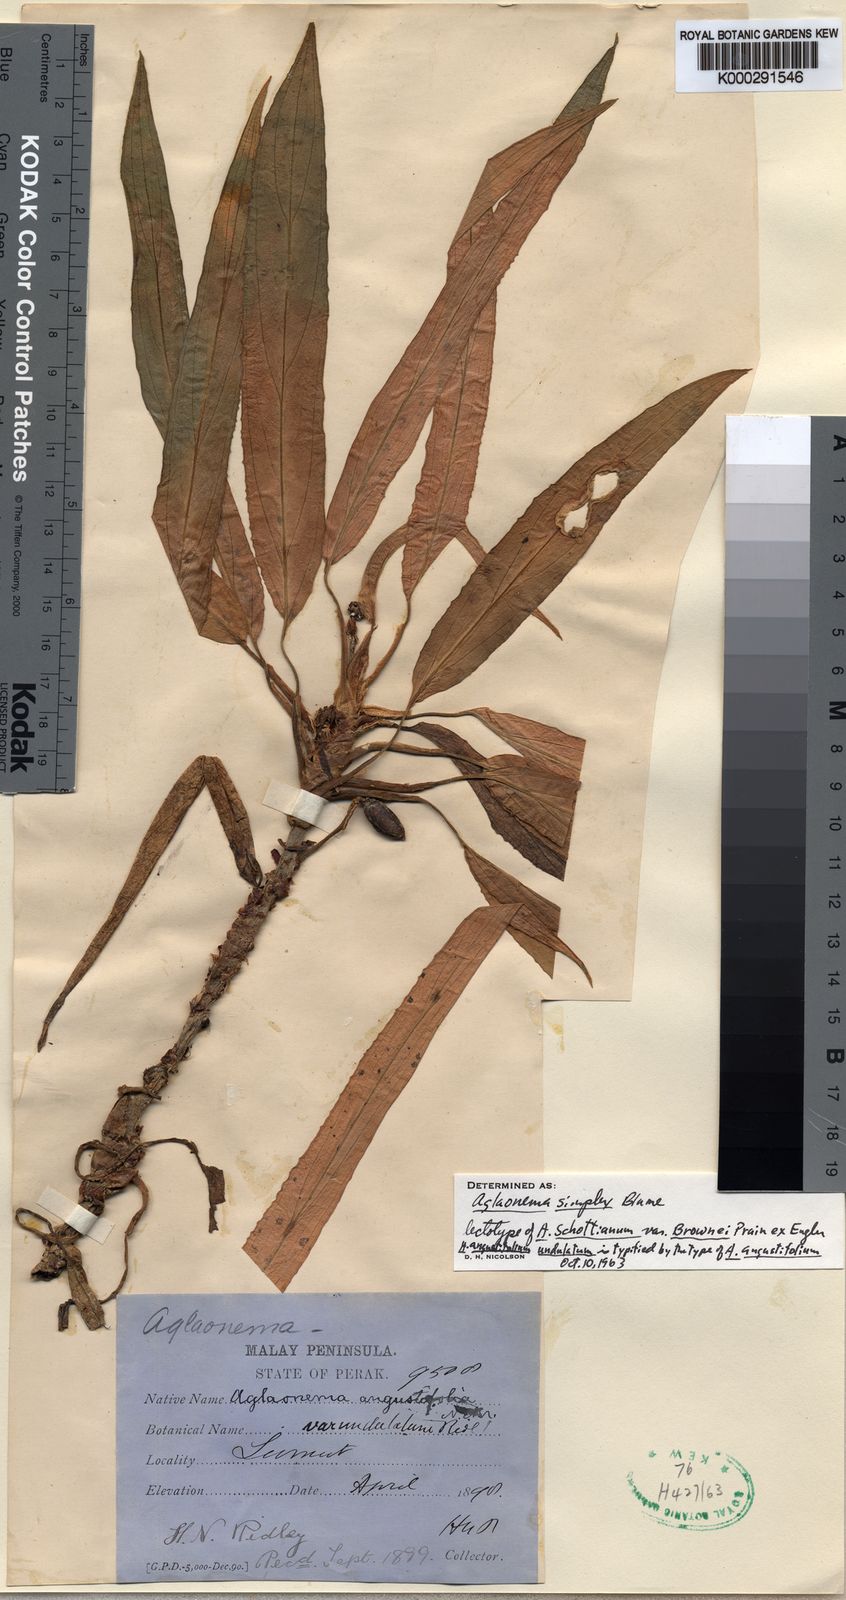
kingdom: Plantae
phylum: Tracheophyta
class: Liliopsida
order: Alismatales
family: Araceae
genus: Aglaonema
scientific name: Aglaonema simplex
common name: Malayan-sword
